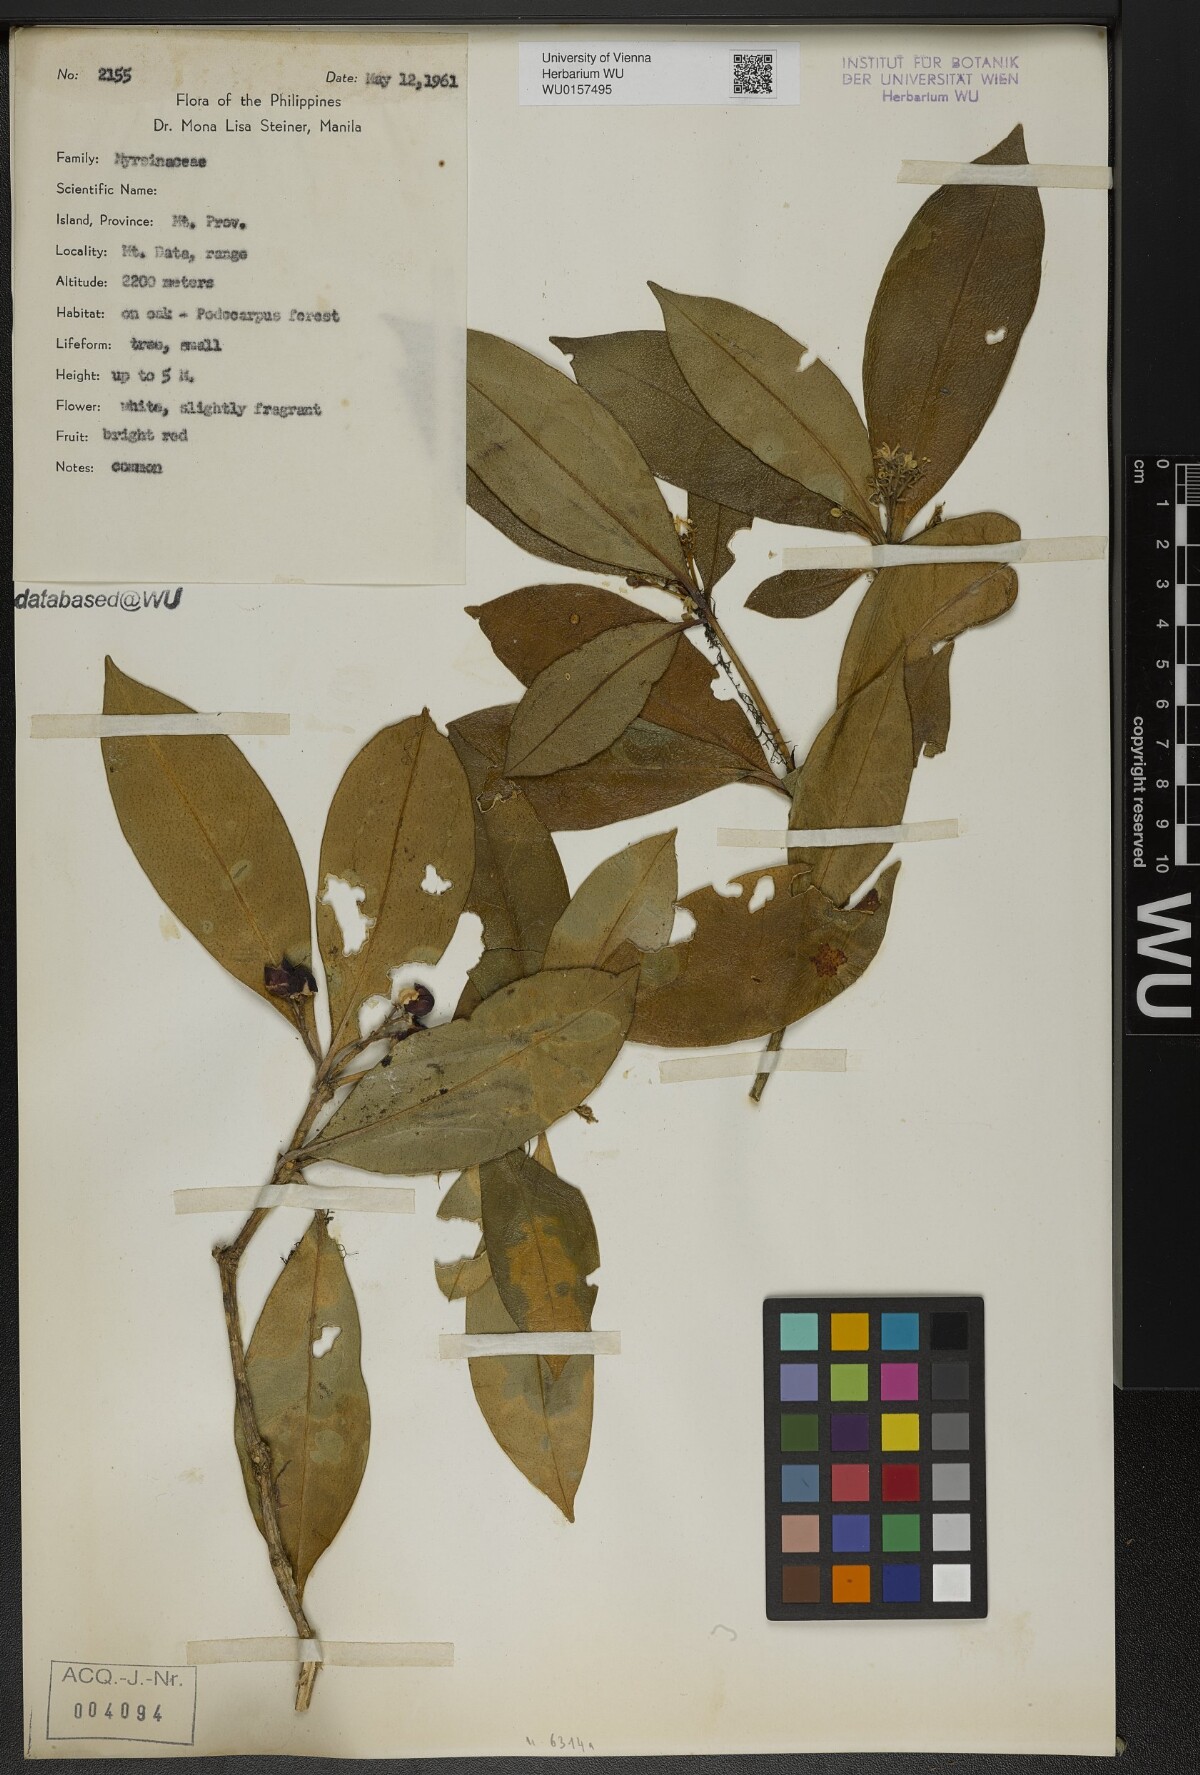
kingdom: Plantae
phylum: Tracheophyta
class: Magnoliopsida
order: Ericales
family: Primulaceae
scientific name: Primulaceae
